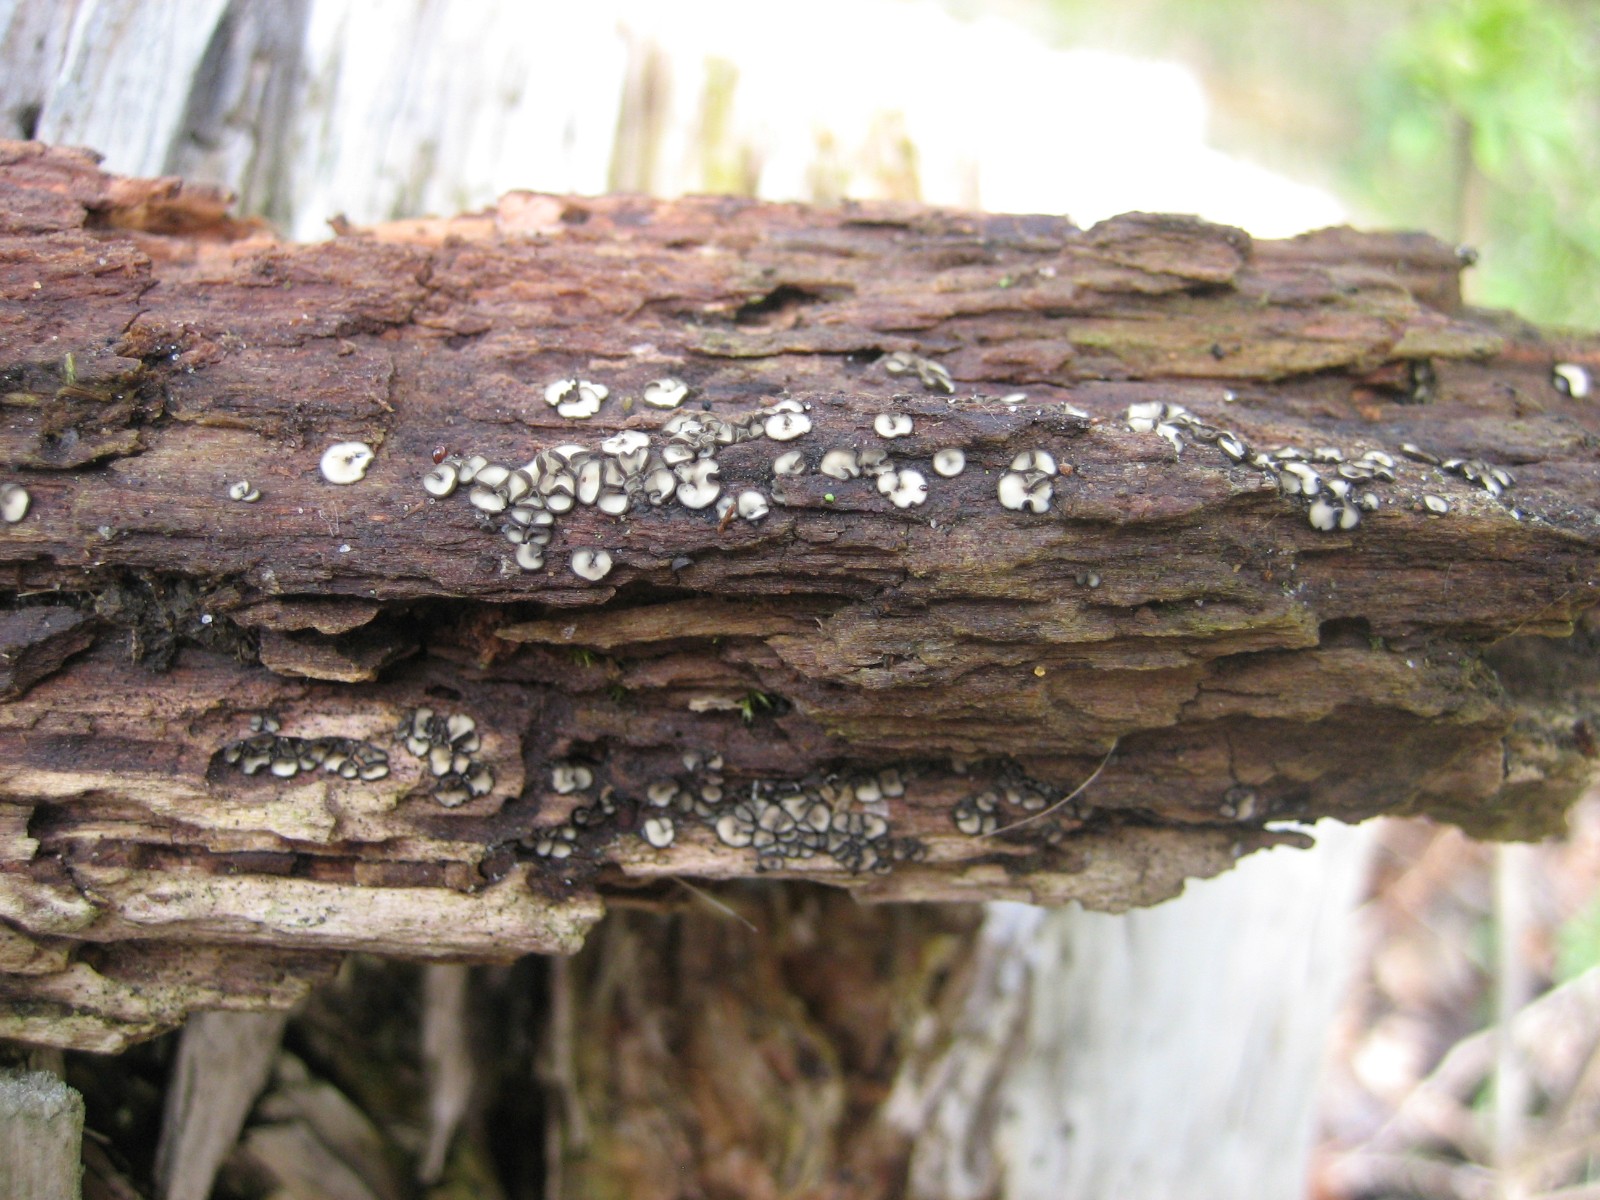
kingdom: Fungi
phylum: Ascomycota
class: Leotiomycetes
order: Helotiales
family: Mollisiaceae
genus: Mollisia
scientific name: Mollisia
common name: gråskive
